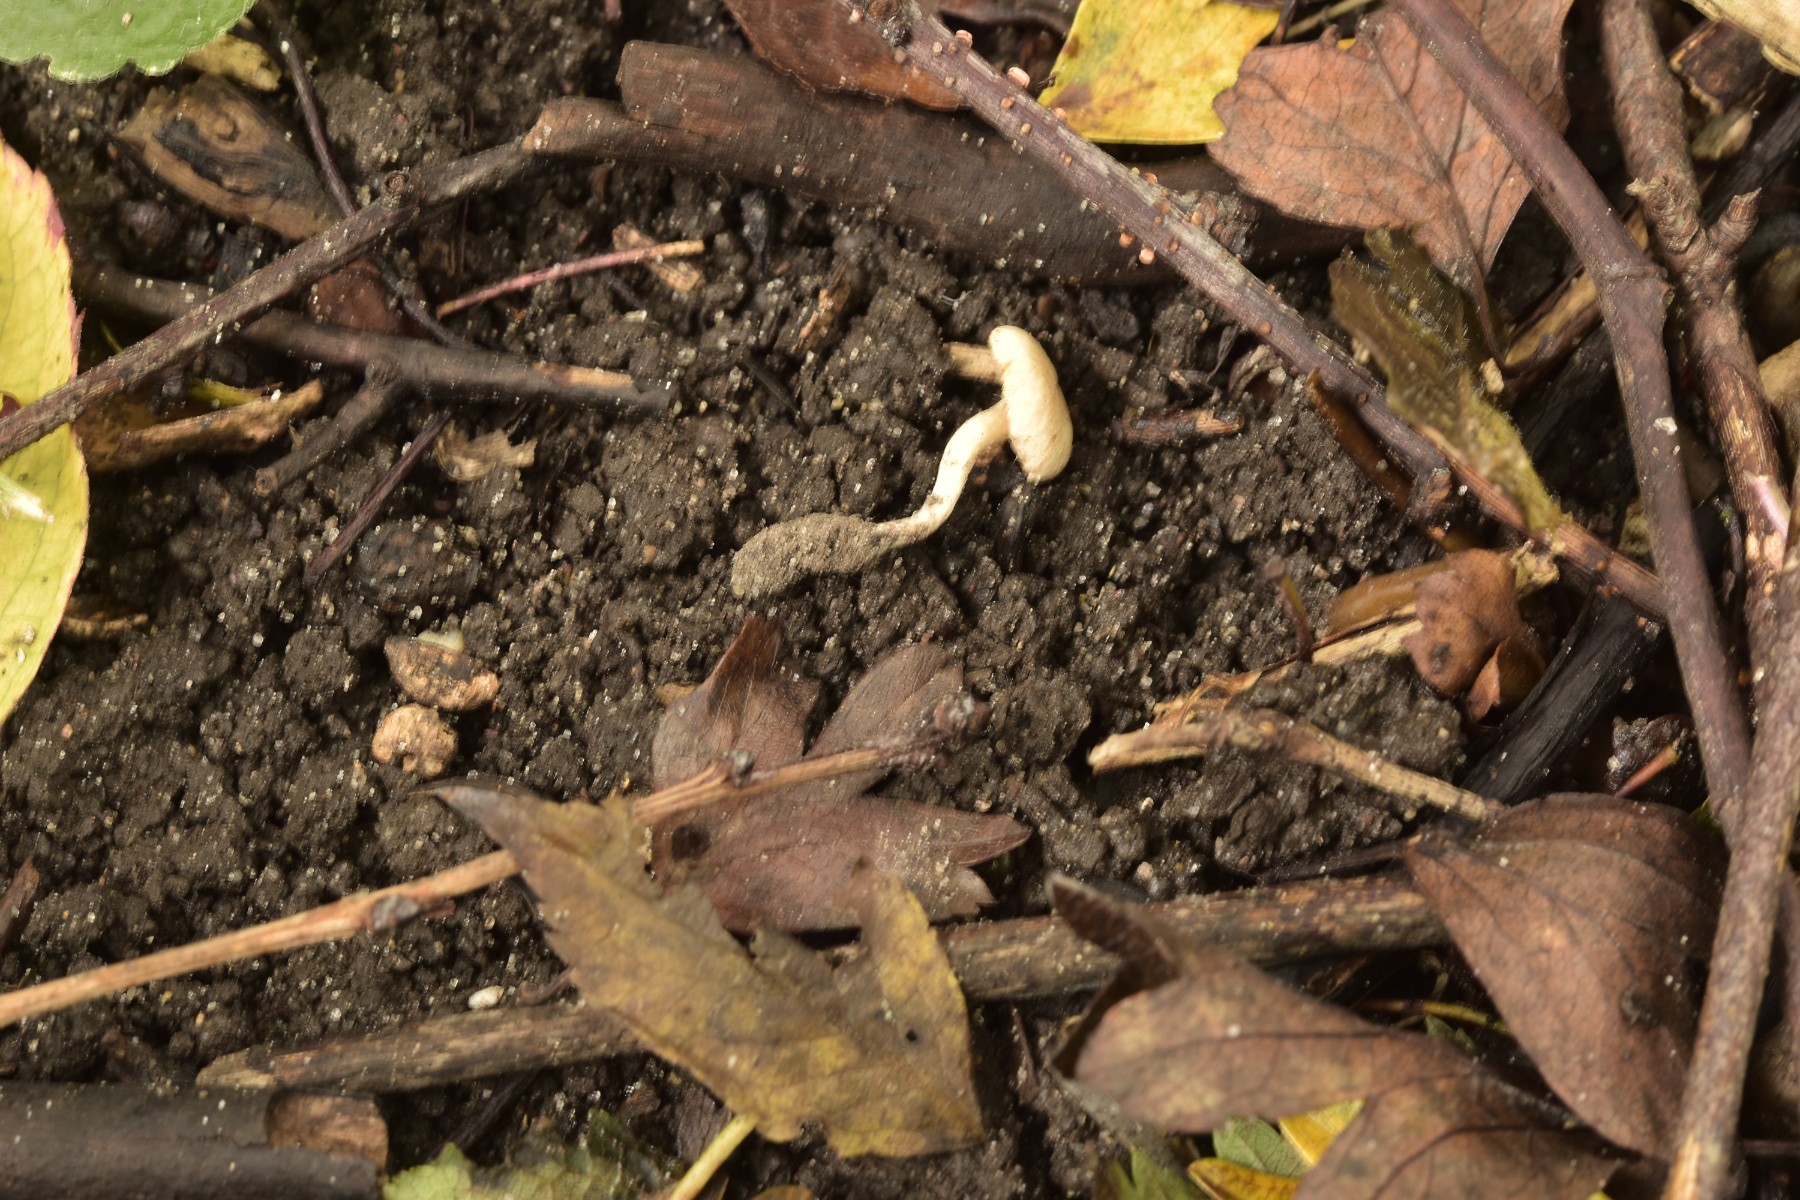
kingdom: Fungi
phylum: Basidiomycota
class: Agaricomycetes
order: Agaricales
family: Tubariaceae
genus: Tubaria
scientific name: Tubaria dispersa
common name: tjørne-fnughat
